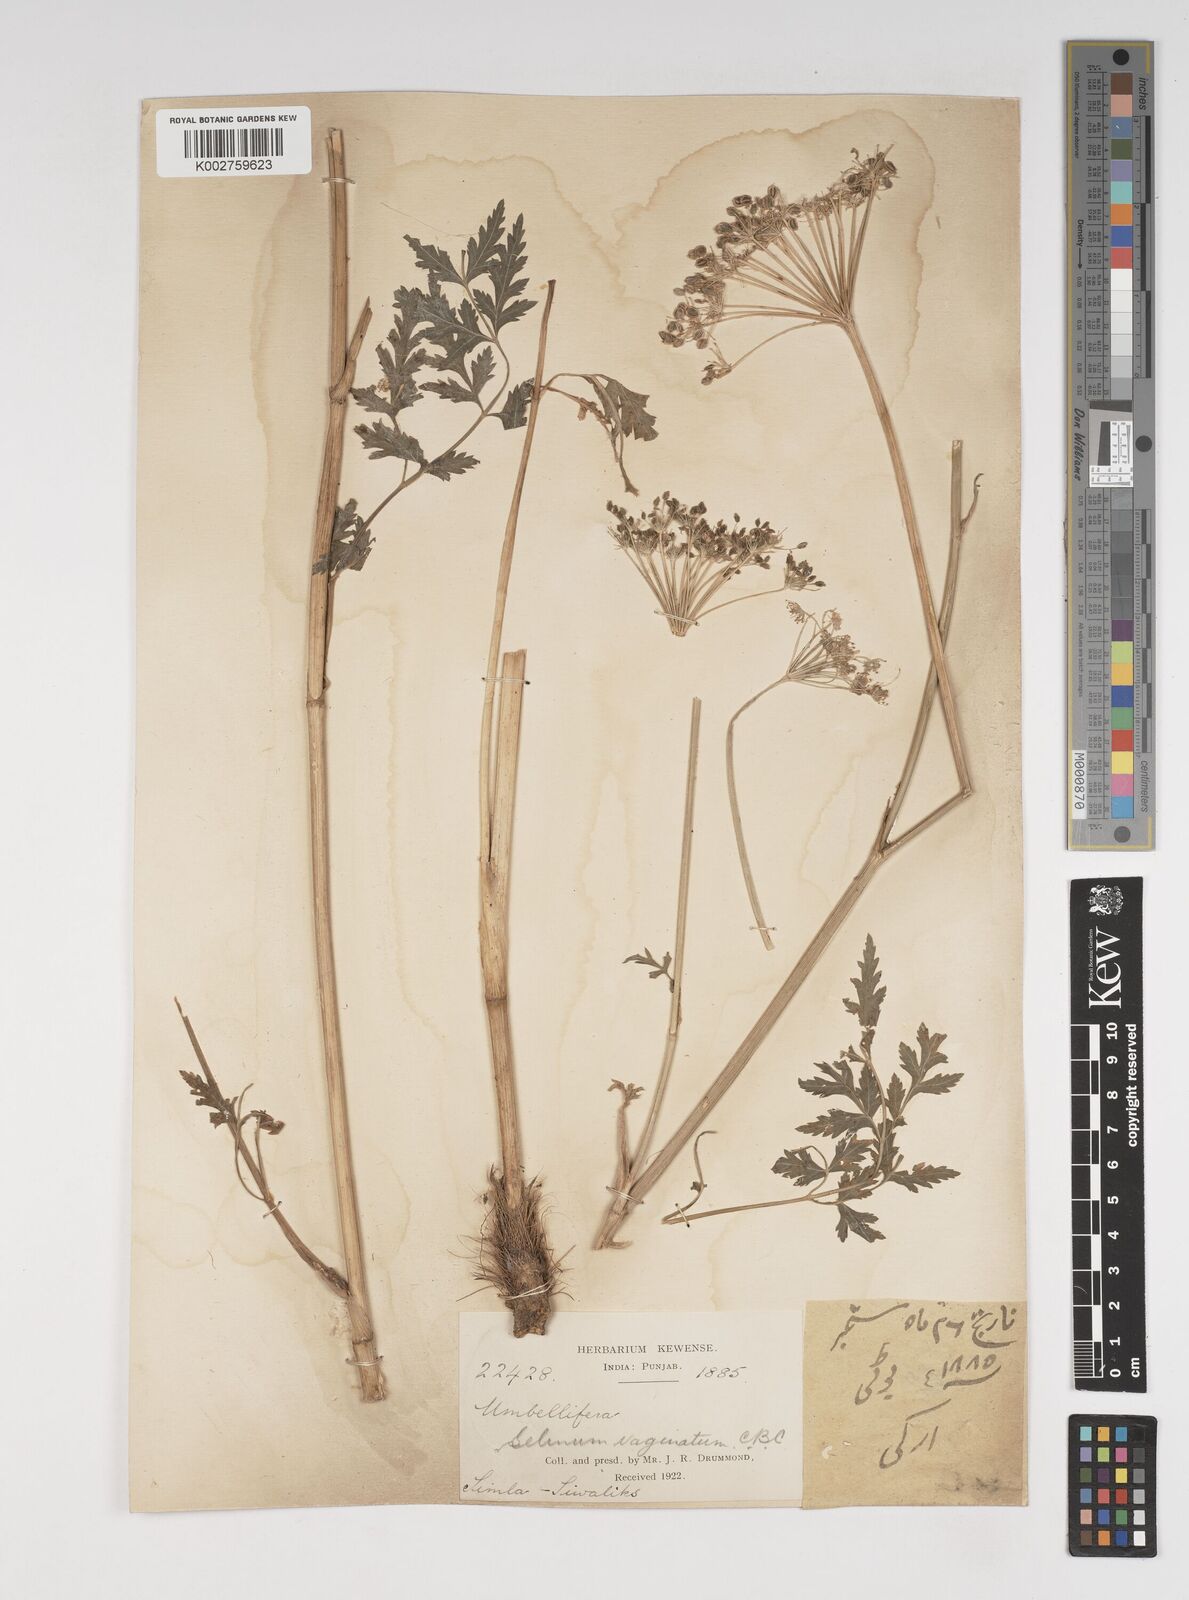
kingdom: Plantae
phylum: Tracheophyta
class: Magnoliopsida
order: Apiales
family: Apiaceae
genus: Selinum
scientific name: Selinum vaginatum
